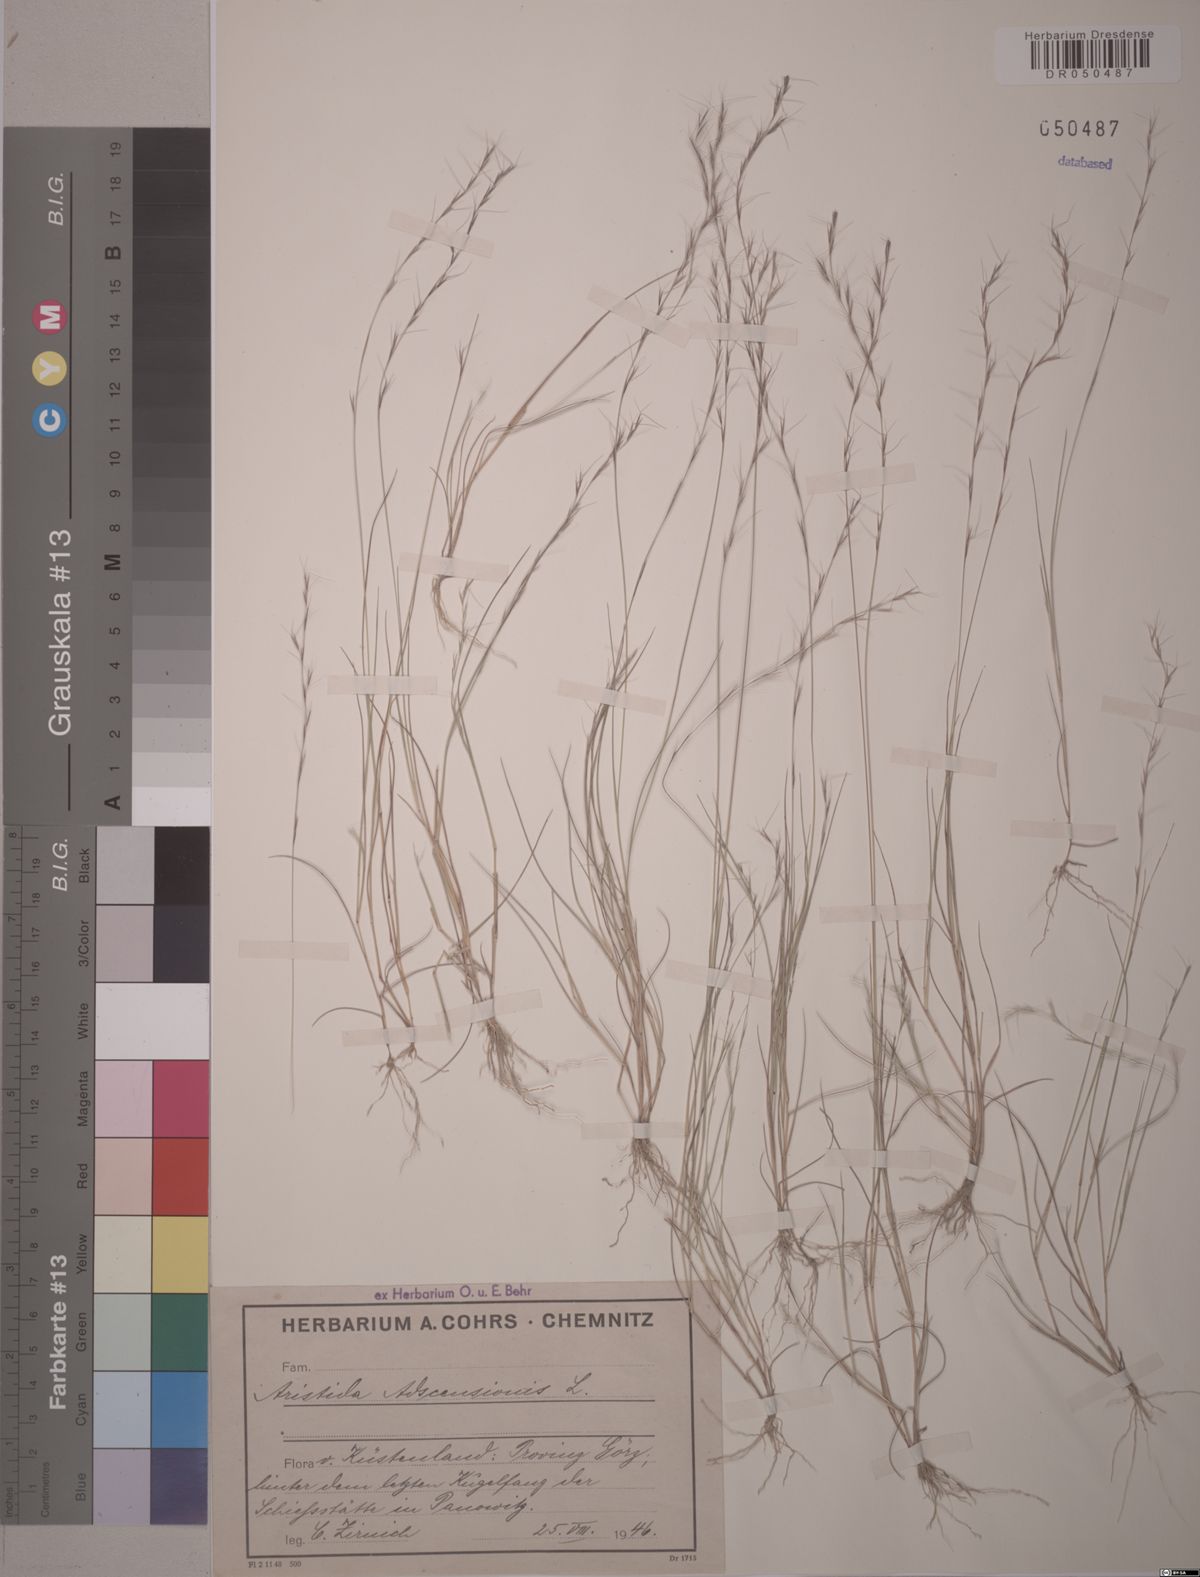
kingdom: Plantae
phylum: Tracheophyta
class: Liliopsida
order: Poales
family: Poaceae
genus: Aristida
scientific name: Aristida adscensionis
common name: Sixweeks threeawn
